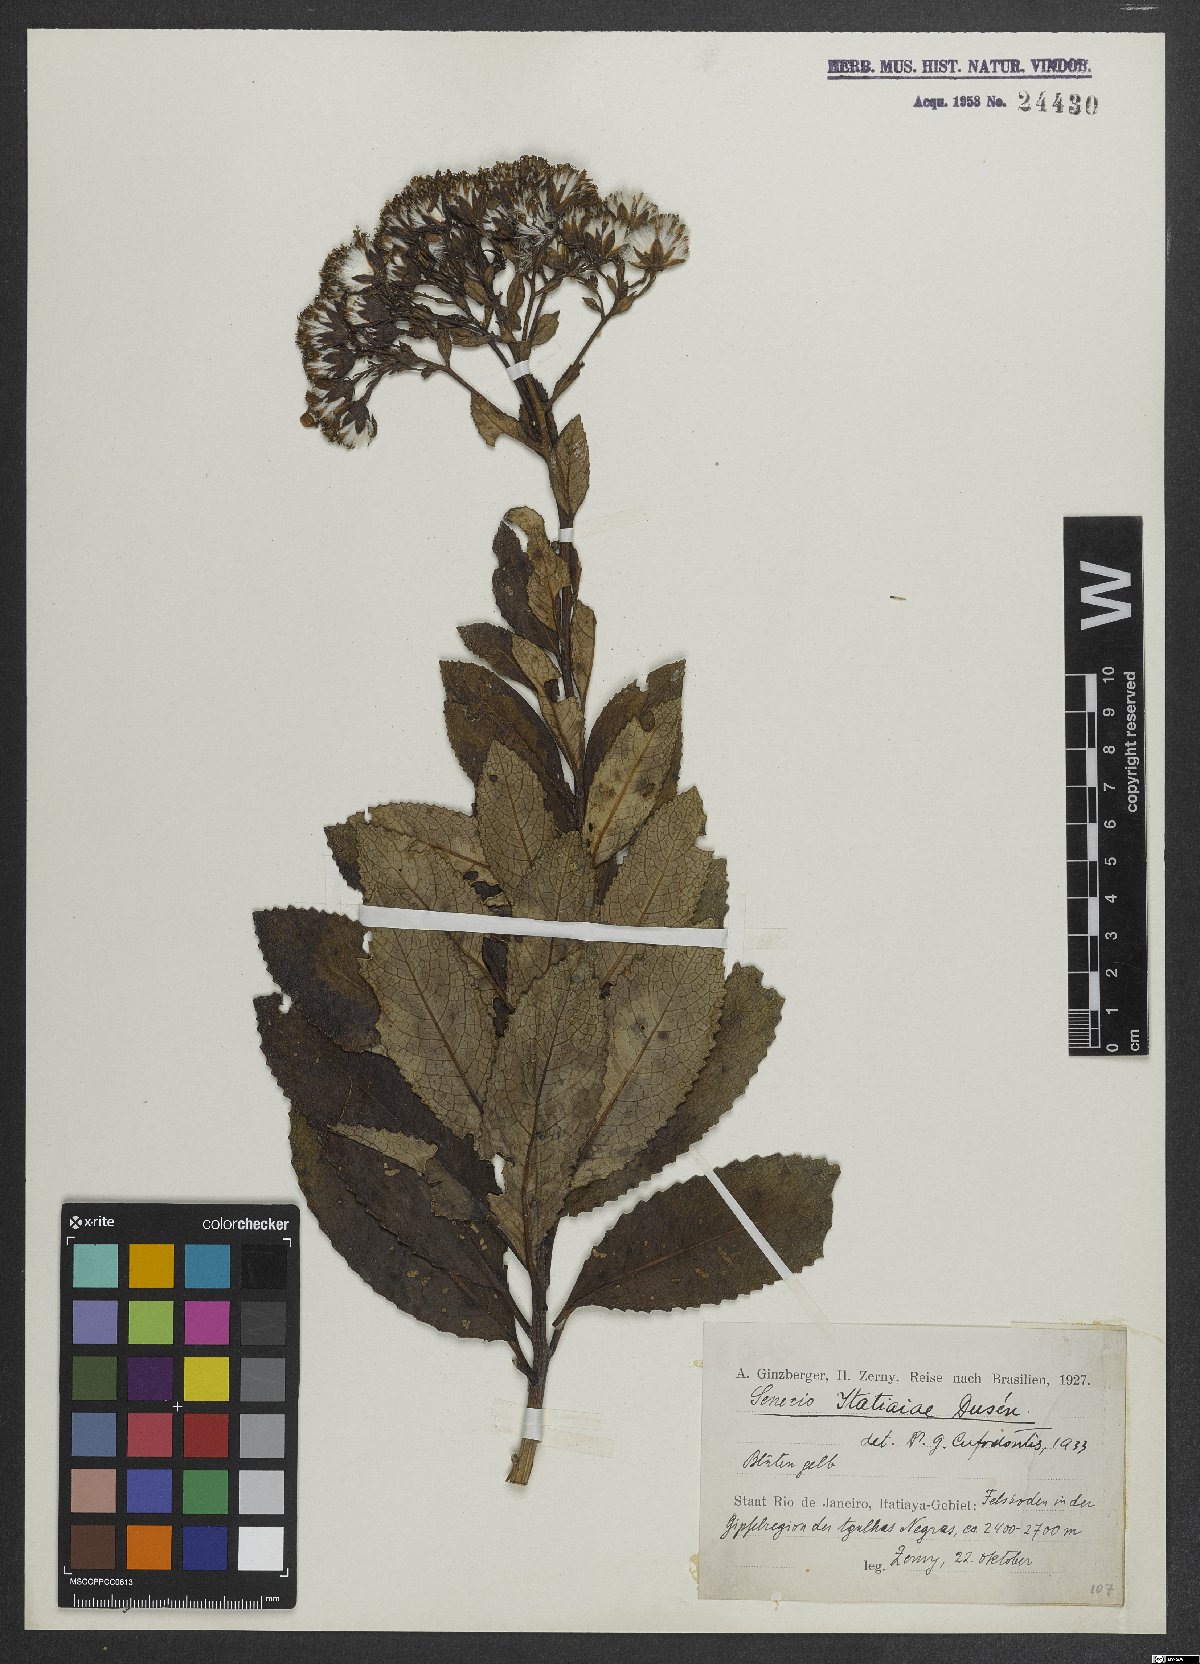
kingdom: Plantae
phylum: Tracheophyta
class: Magnoliopsida
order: Asterales
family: Asteraceae
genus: Graphistylis
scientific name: Graphistylis itatiaiae
